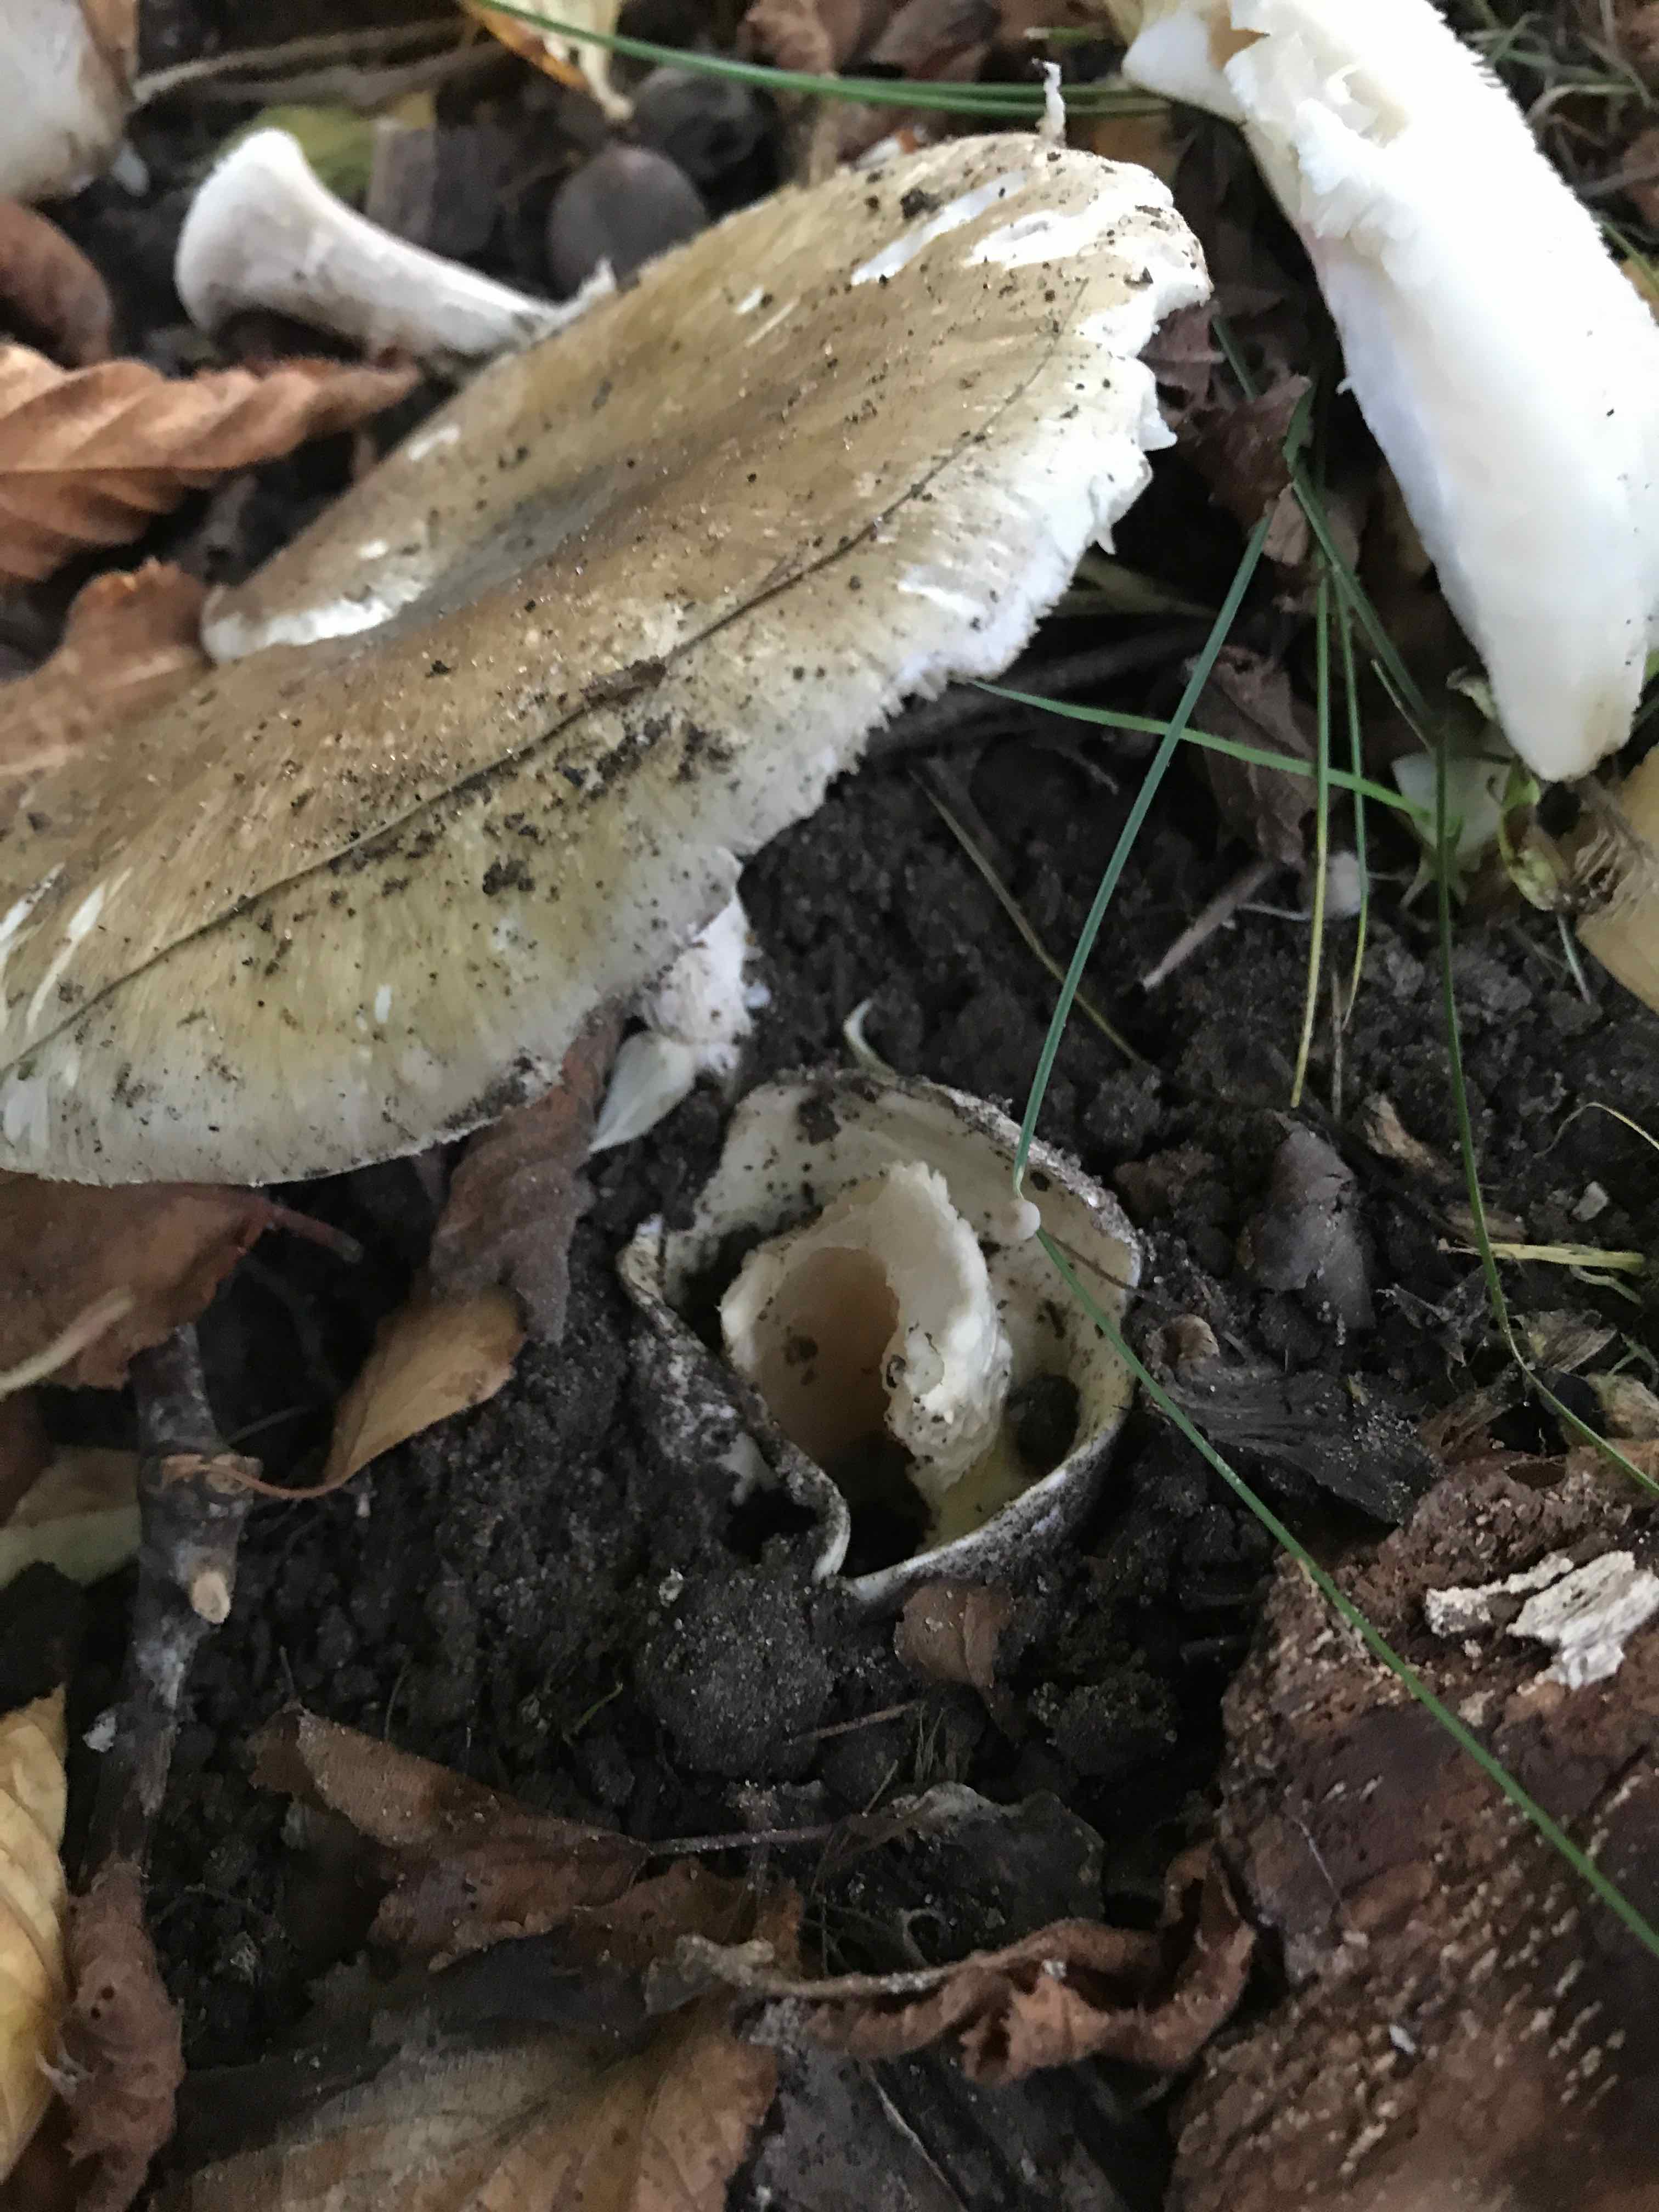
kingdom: Fungi
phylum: Basidiomycota
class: Agaricomycetes
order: Agaricales
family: Amanitaceae
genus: Amanita
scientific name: Amanita phalloides
